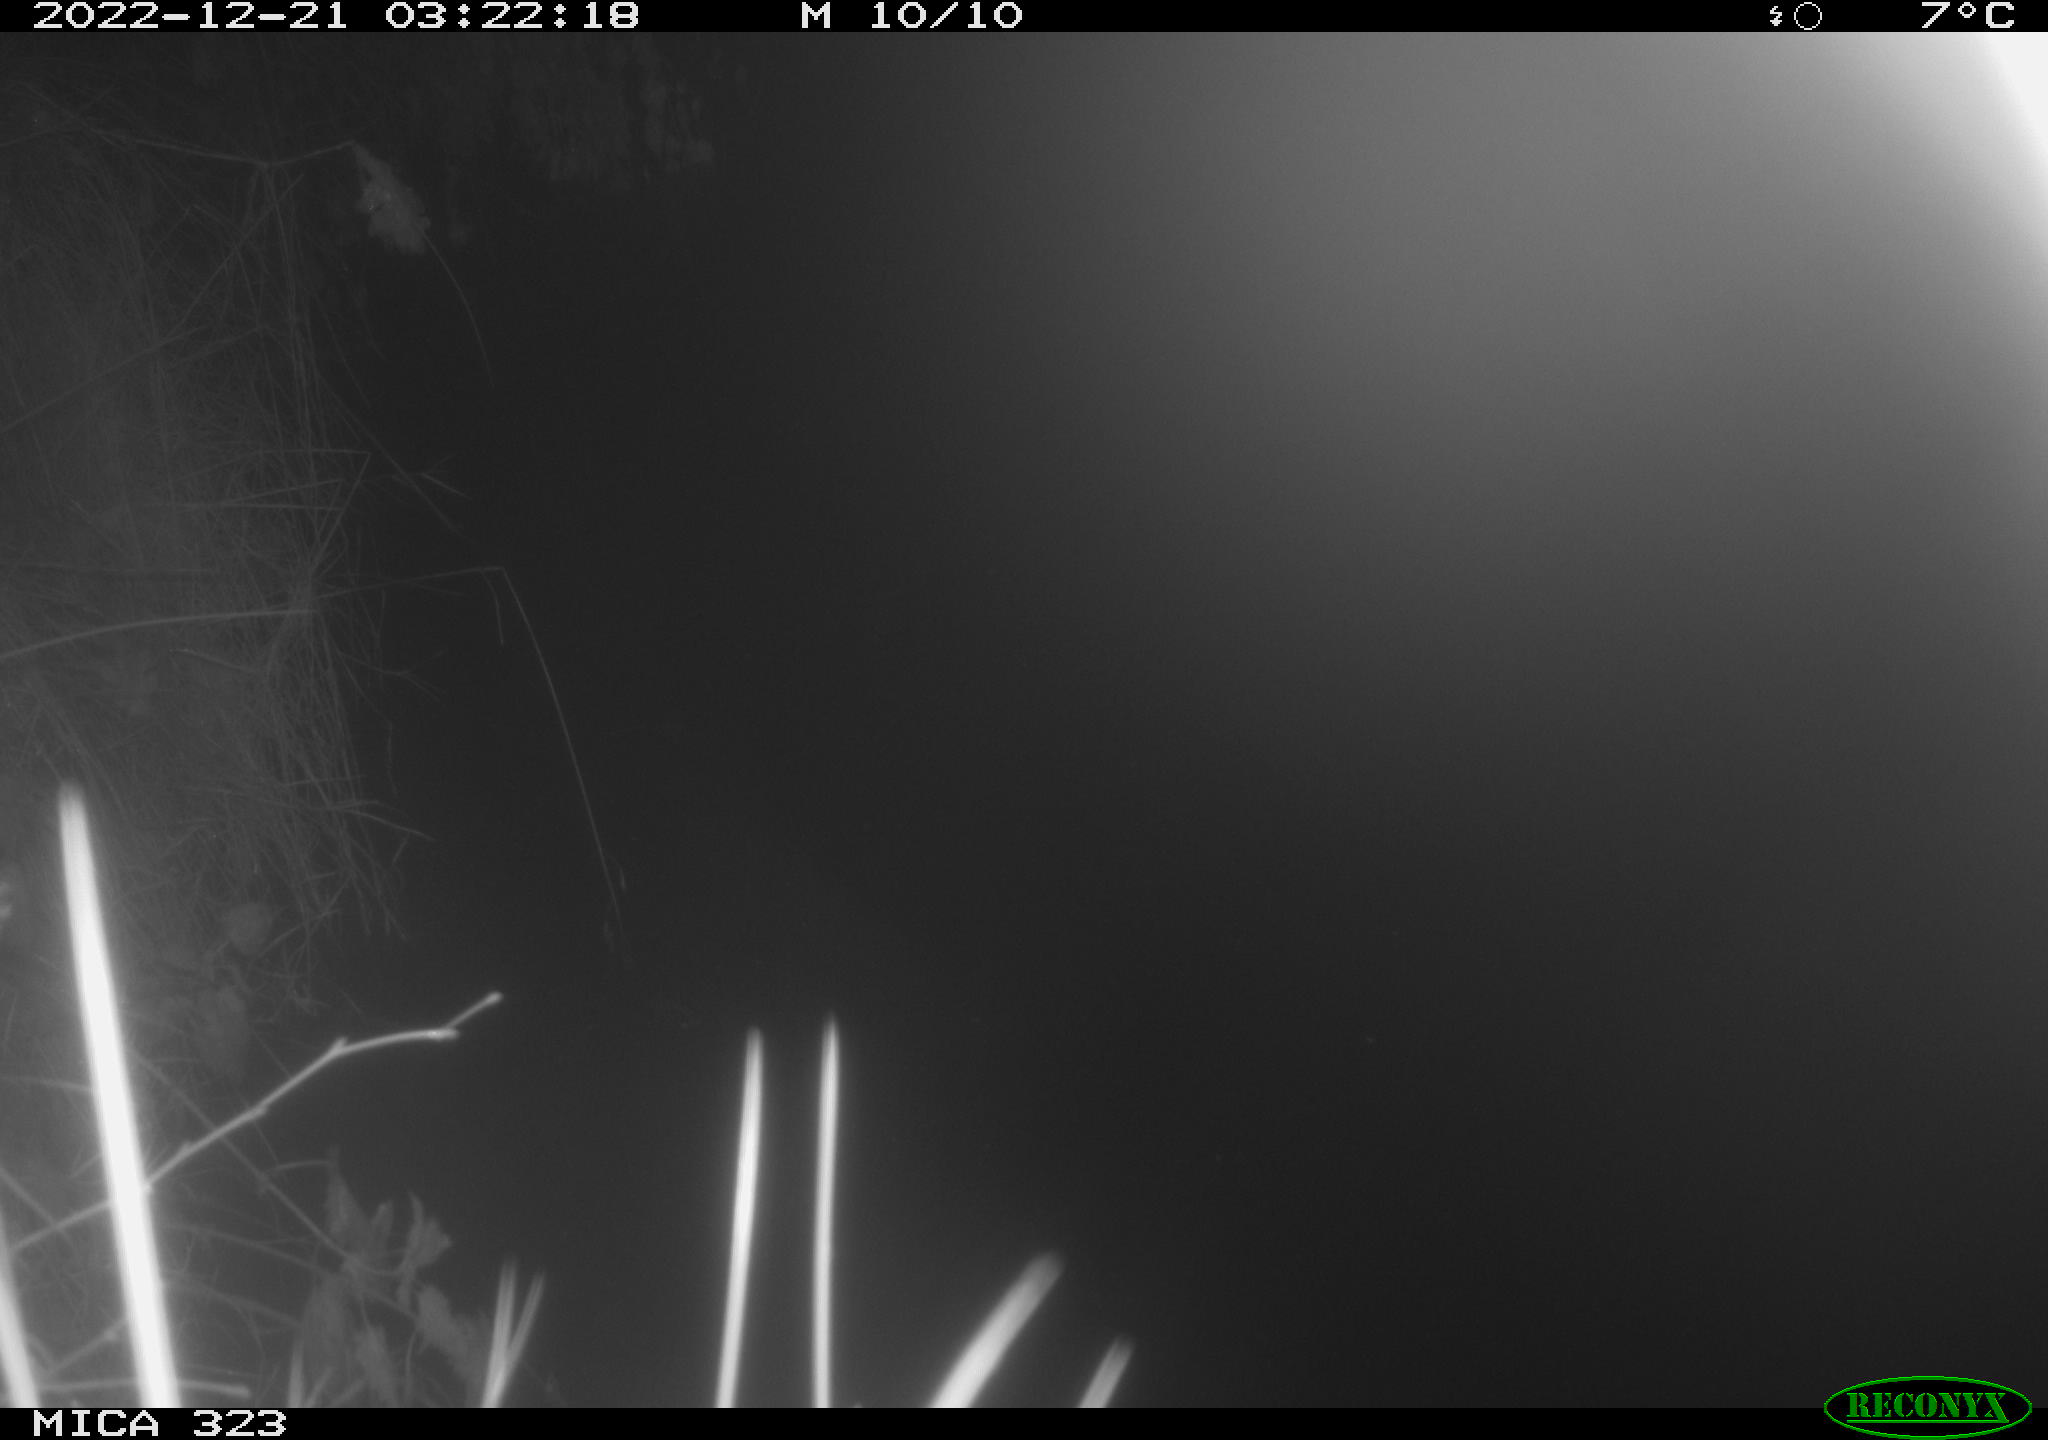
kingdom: Animalia
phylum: Chordata
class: Mammalia
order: Rodentia
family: Cricetidae
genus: Ondatra
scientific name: Ondatra zibethicus
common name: Muskrat
